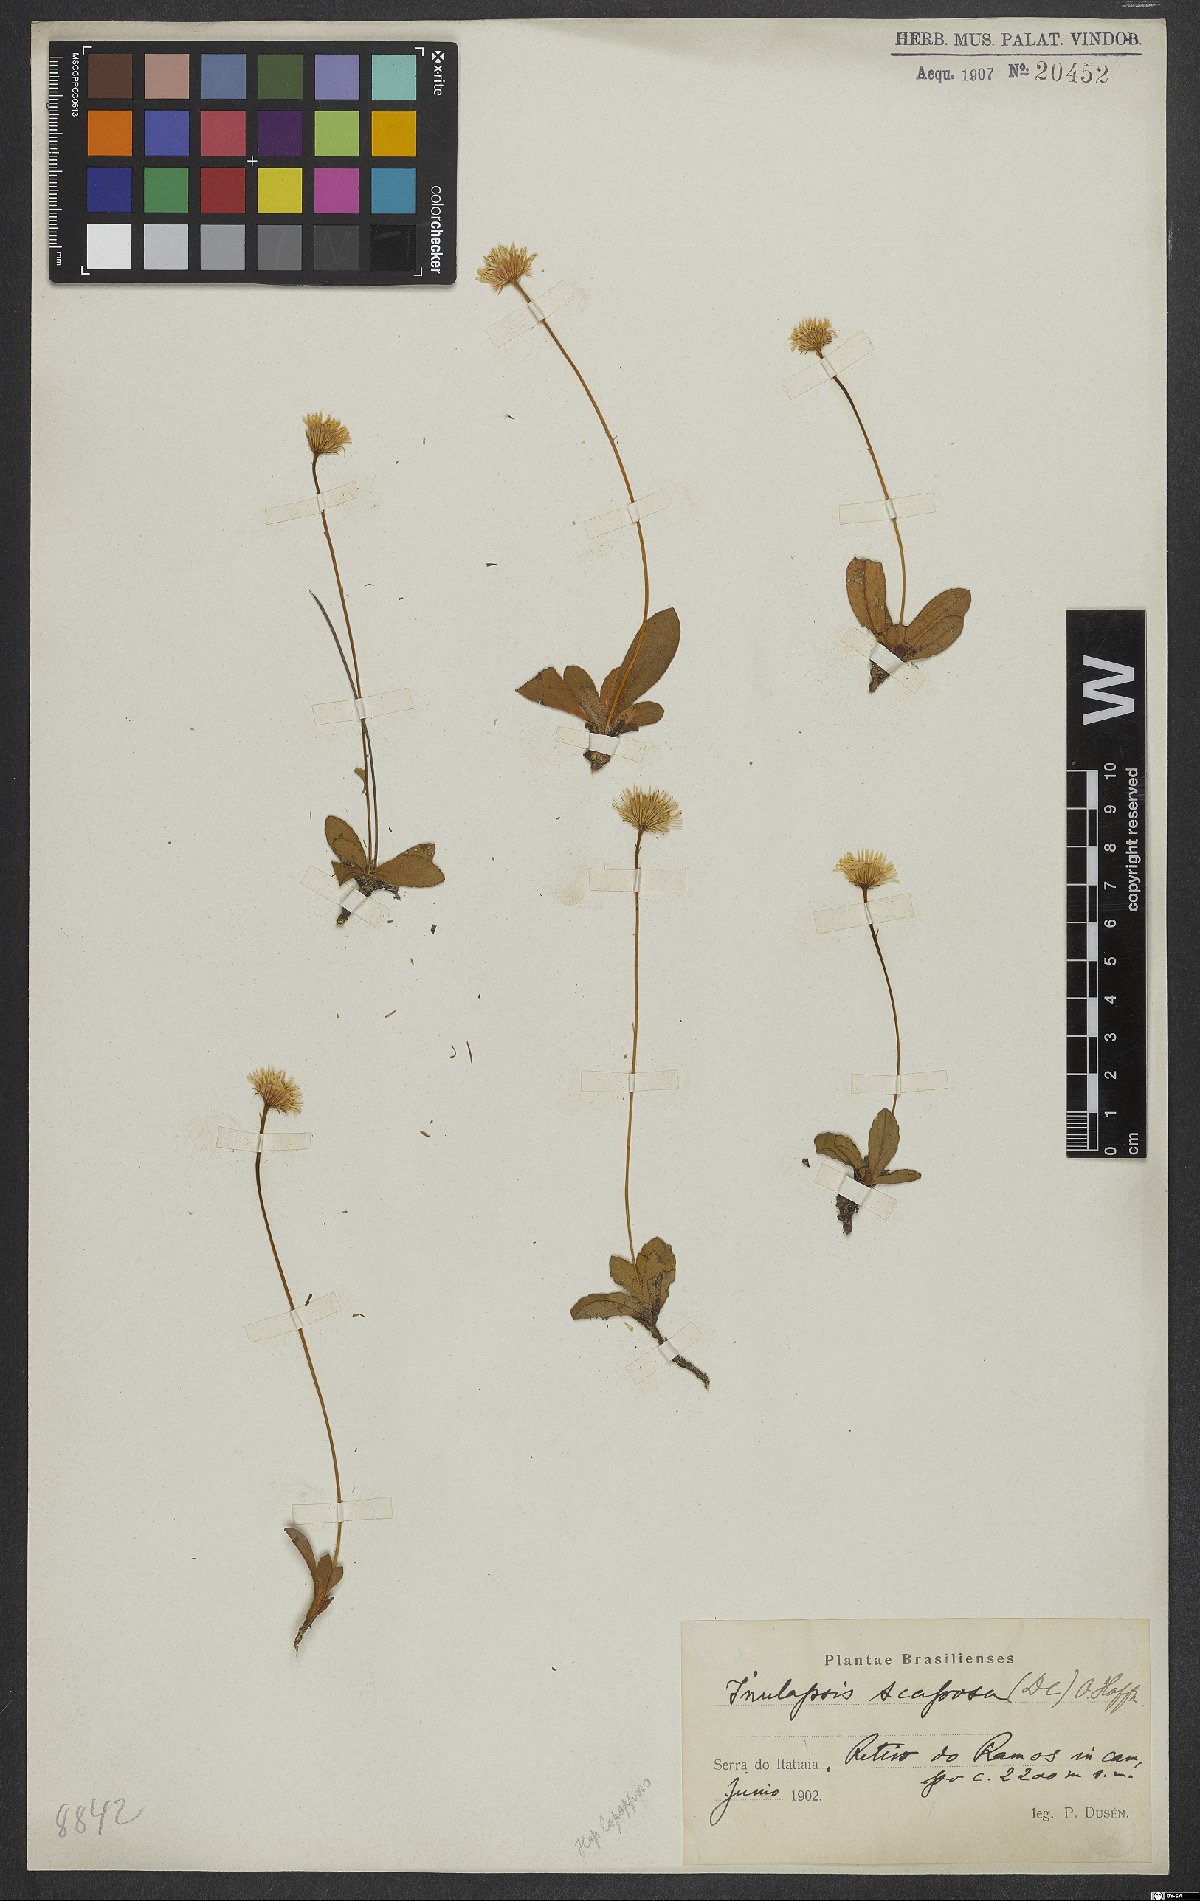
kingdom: Plantae
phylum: Tracheophyta
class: Magnoliopsida
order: Asterales
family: Asteraceae
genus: Inulopsis
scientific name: Inulopsis scaposa
